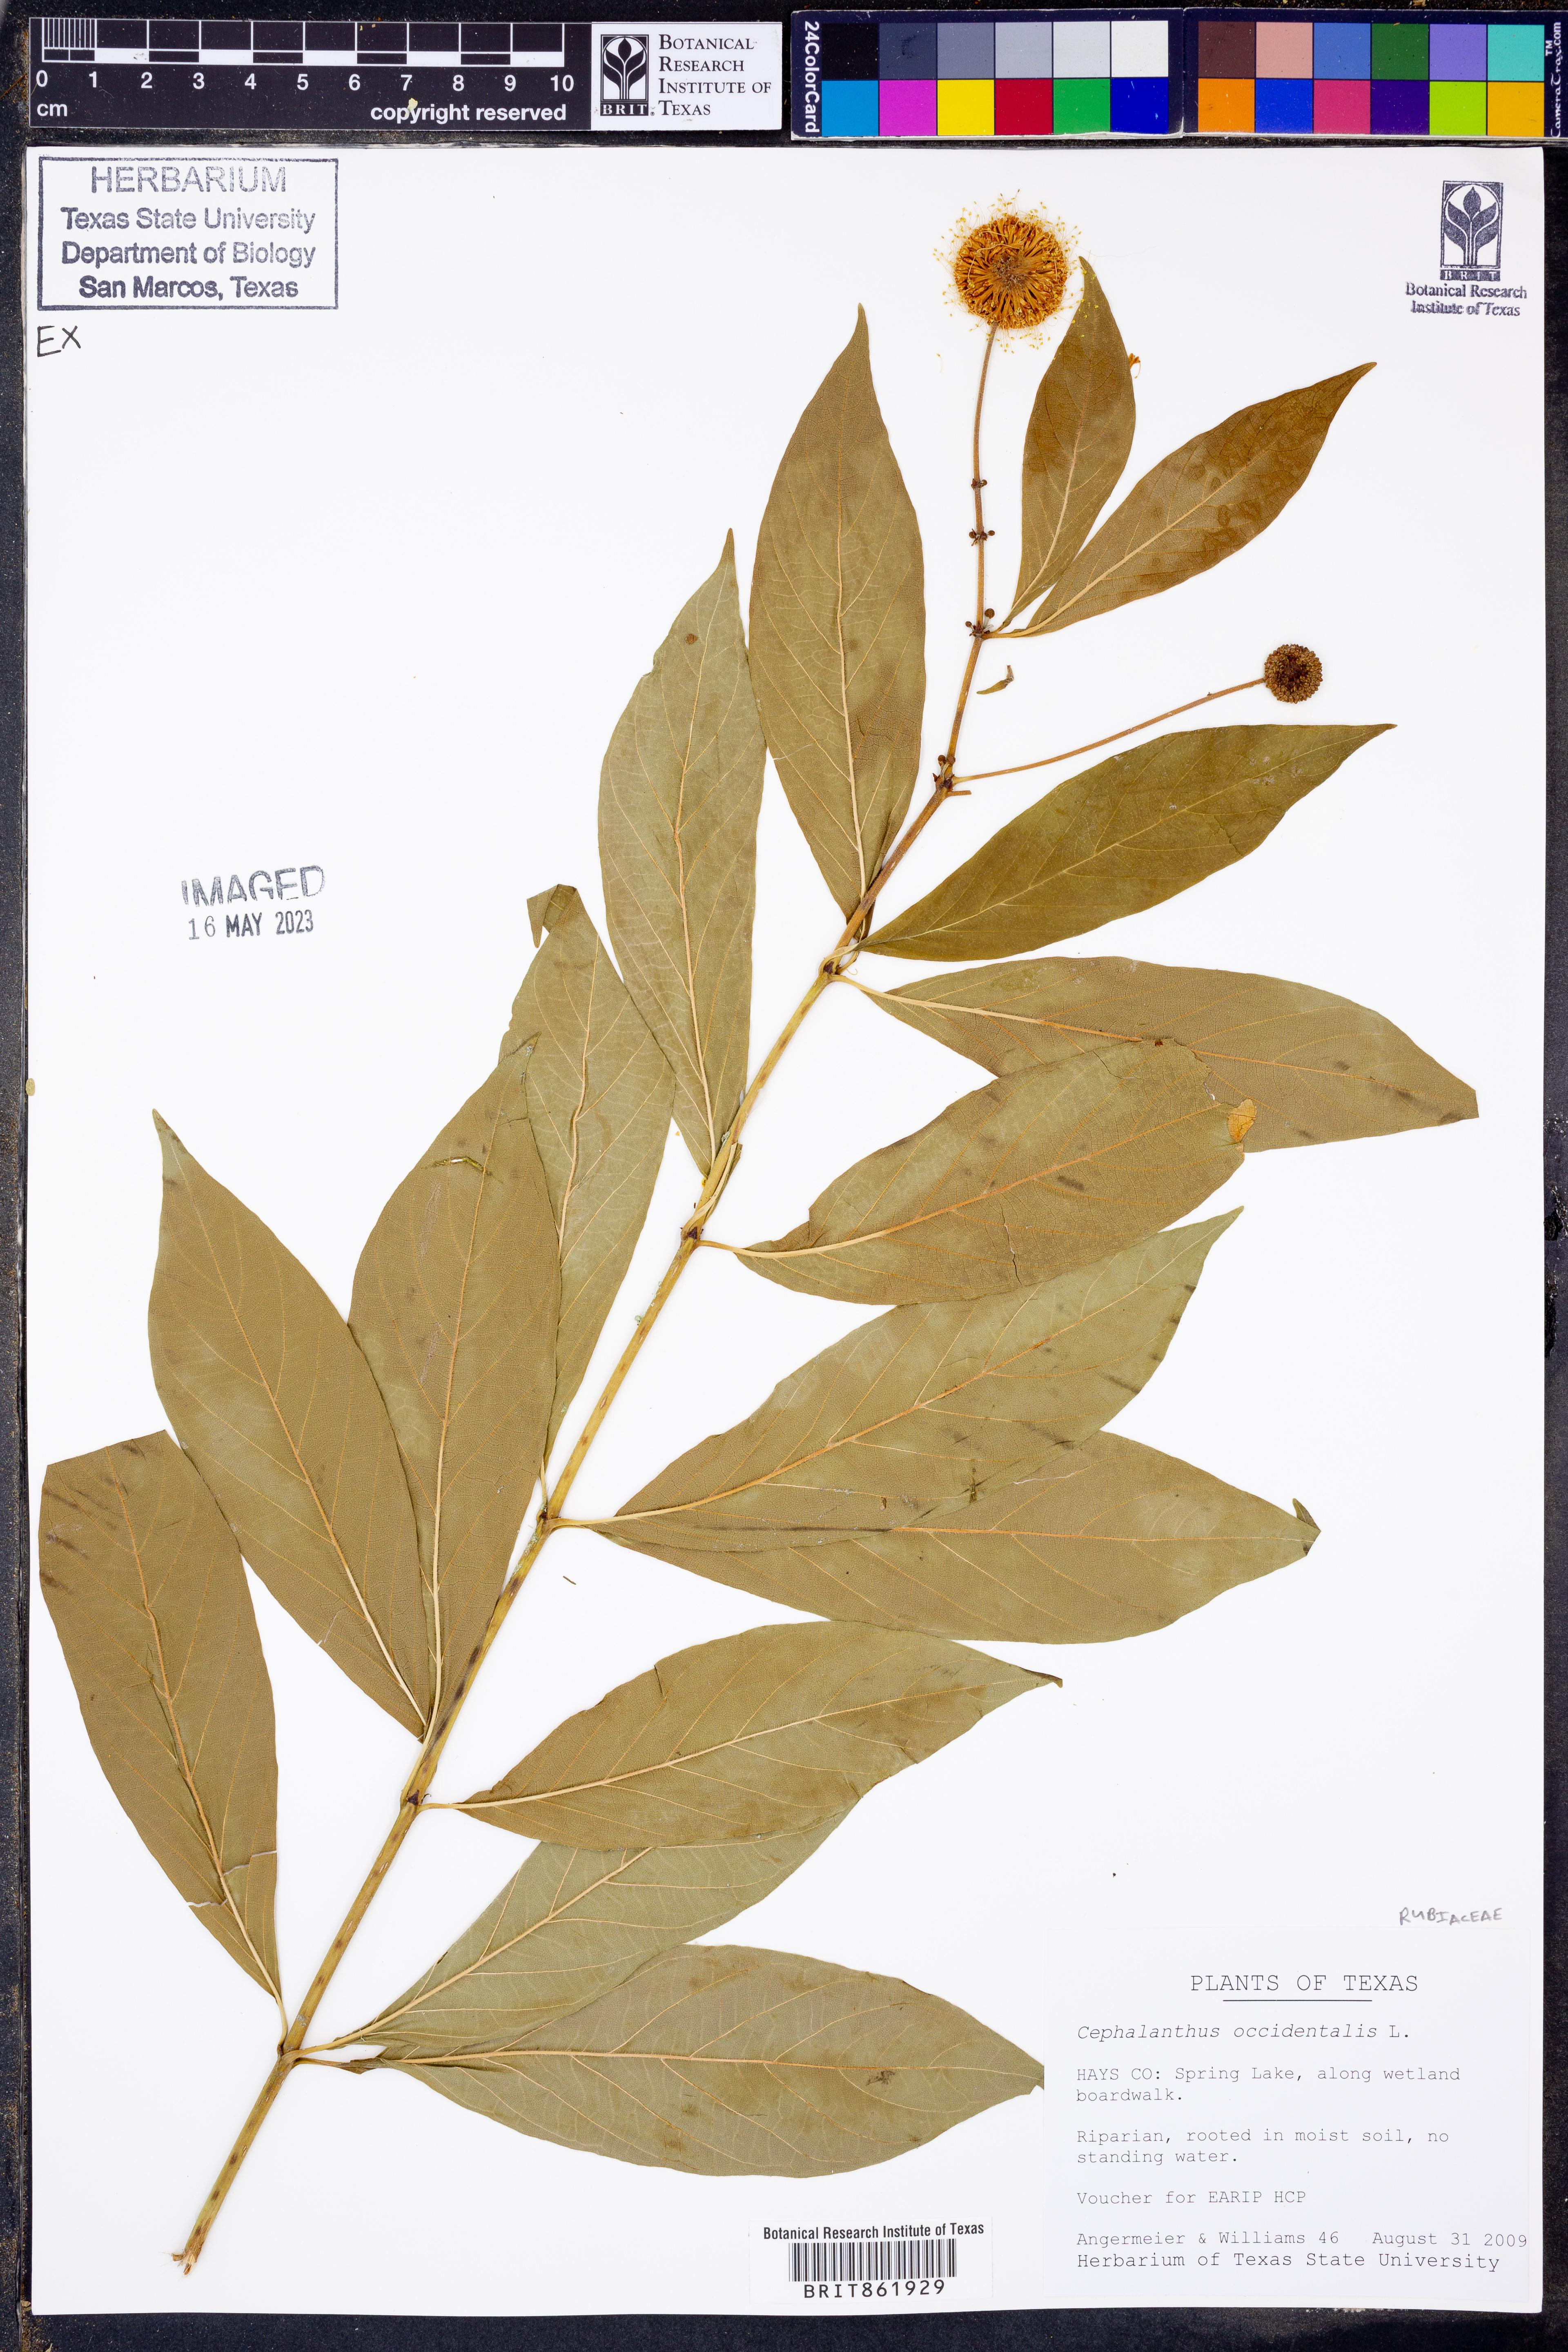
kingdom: Plantae
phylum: Tracheophyta
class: Magnoliopsida
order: Gentianales
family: Rubiaceae
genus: Cephalanthus
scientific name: Cephalanthus occidentalis
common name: Button-willow
